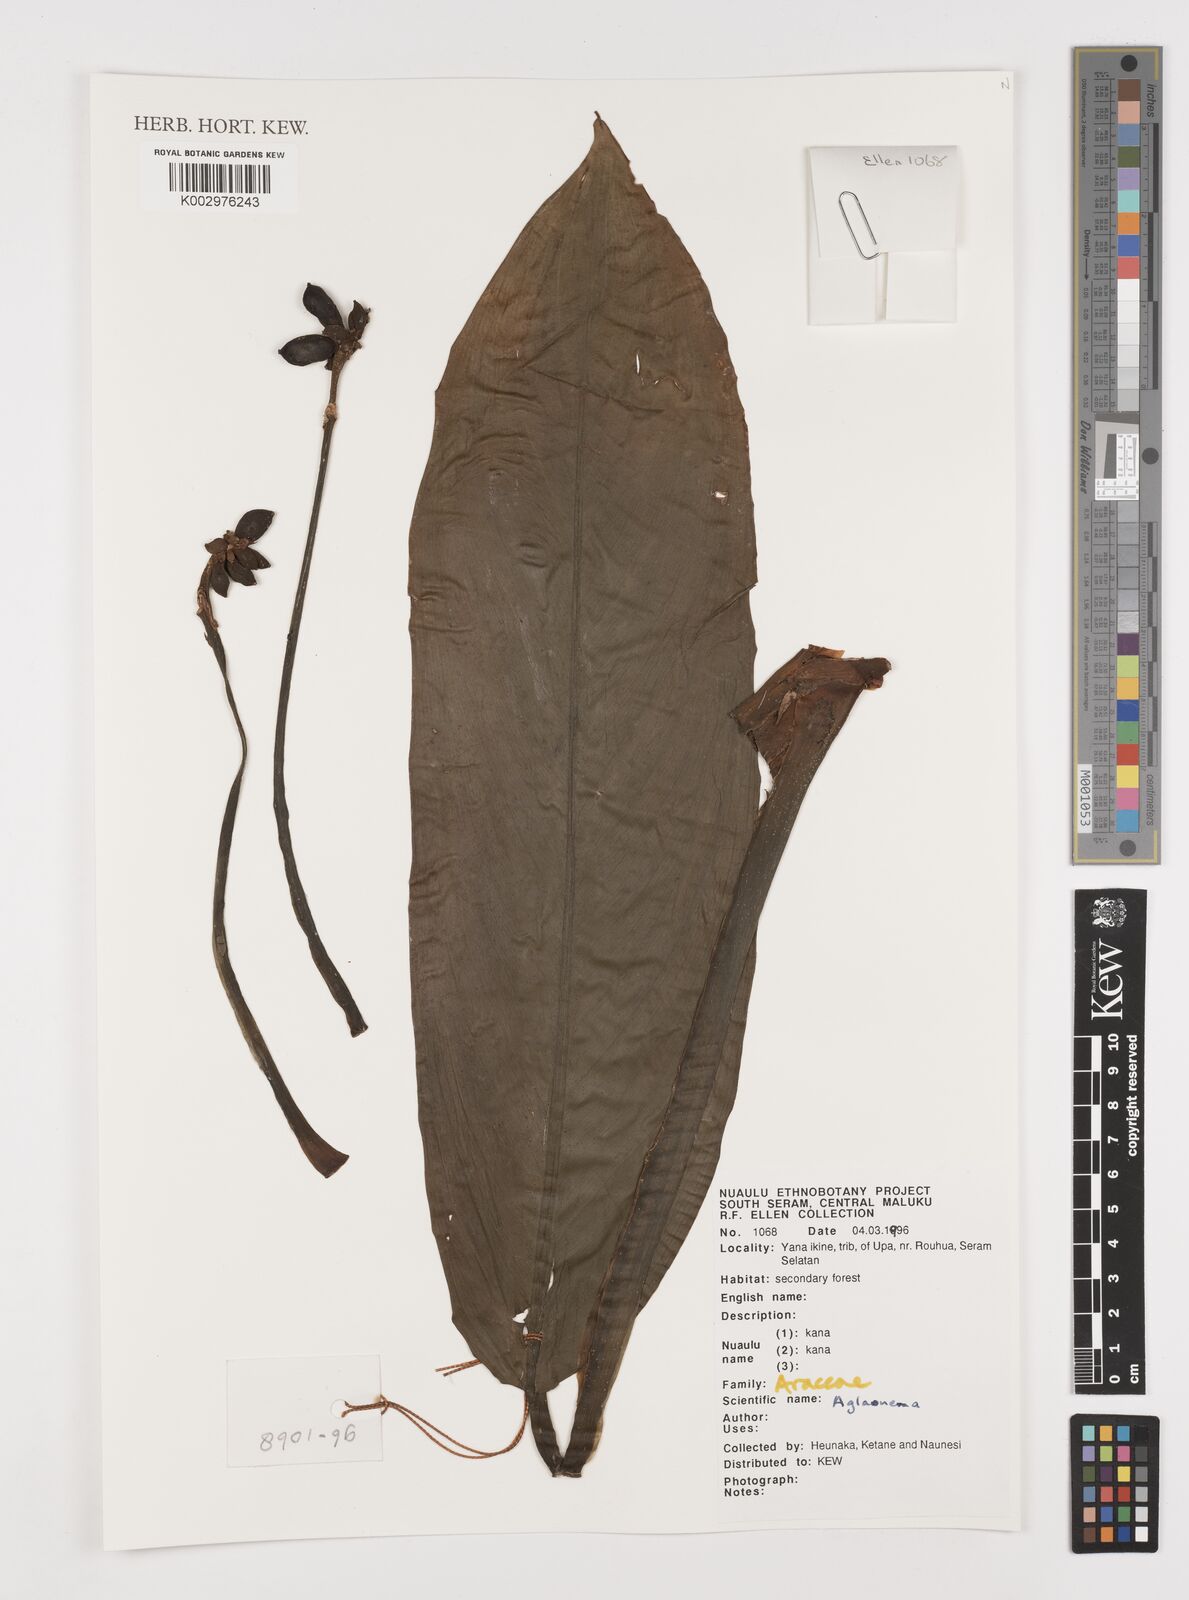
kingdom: Plantae
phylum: Tracheophyta
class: Liliopsida
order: Alismatales
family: Araceae
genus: Aglaonema
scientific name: Aglaonema
